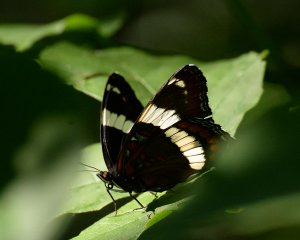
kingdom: Animalia
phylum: Arthropoda
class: Insecta
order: Lepidoptera
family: Nymphalidae
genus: Limenitis
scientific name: Limenitis arthemis
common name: Red-spotted Admiral
